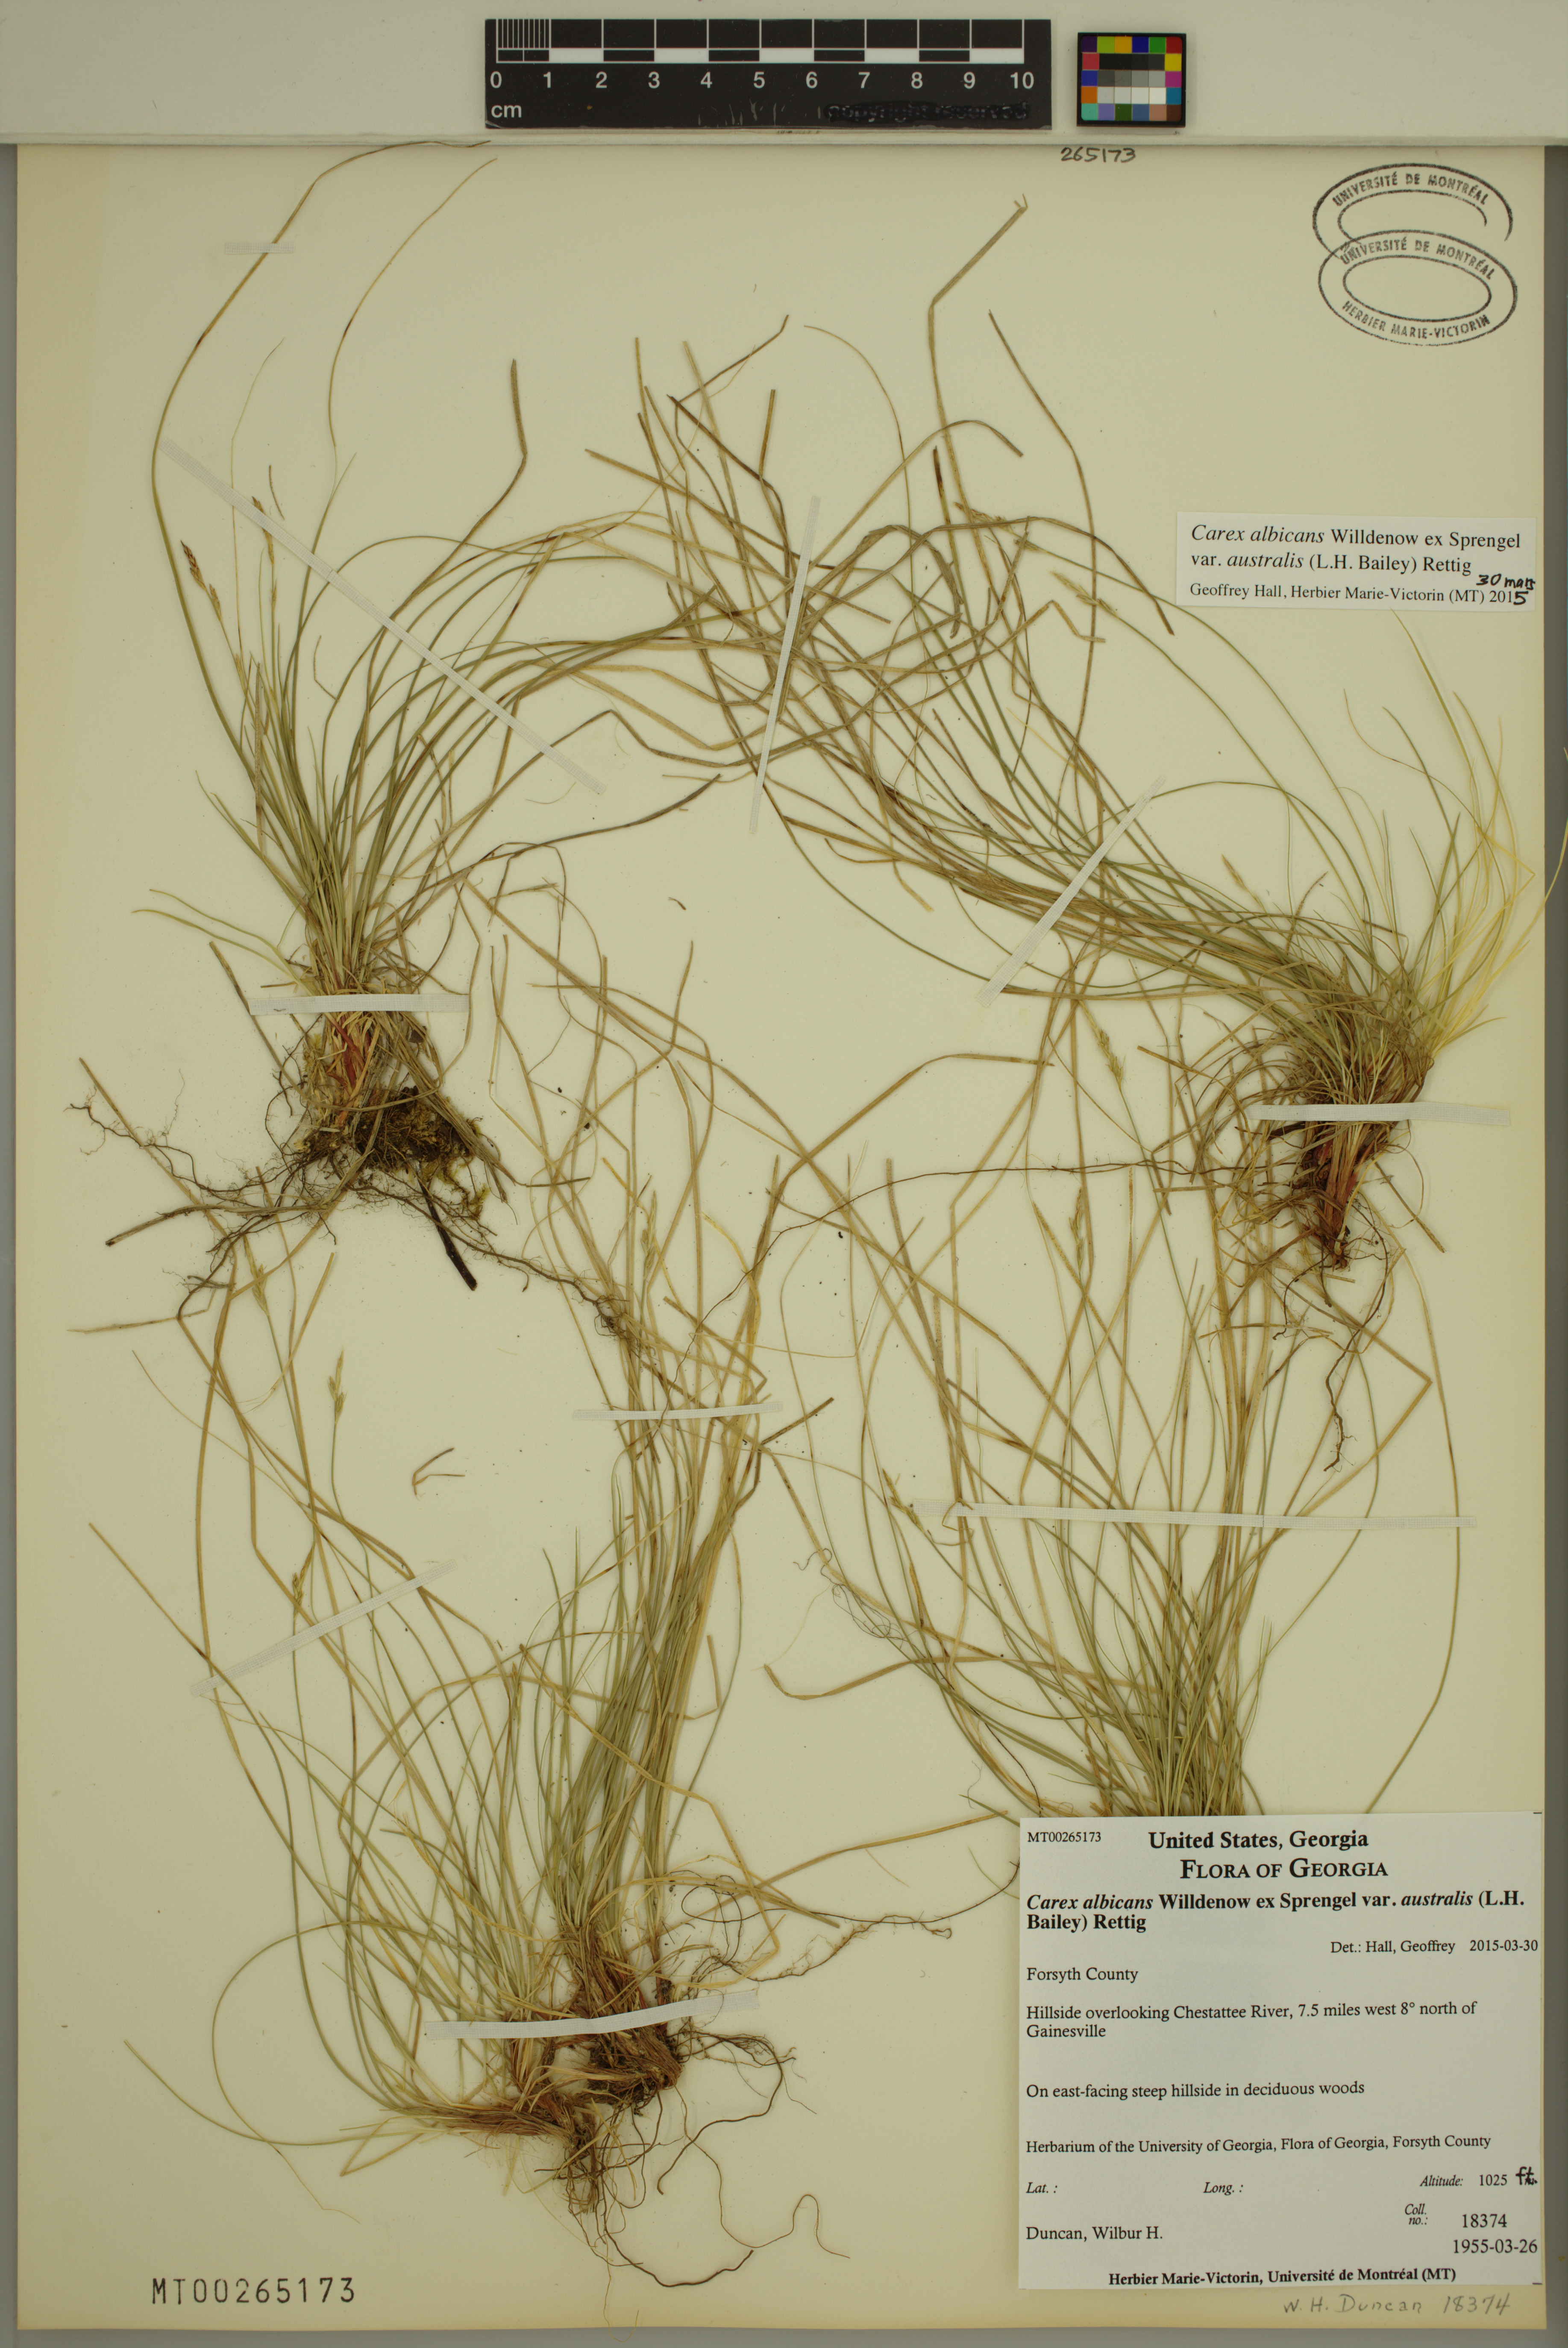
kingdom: Plantae
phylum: Tracheophyta
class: Liliopsida
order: Poales
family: Cyperaceae
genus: Carex
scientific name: Carex albicans
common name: Bellow-beaked sedge
